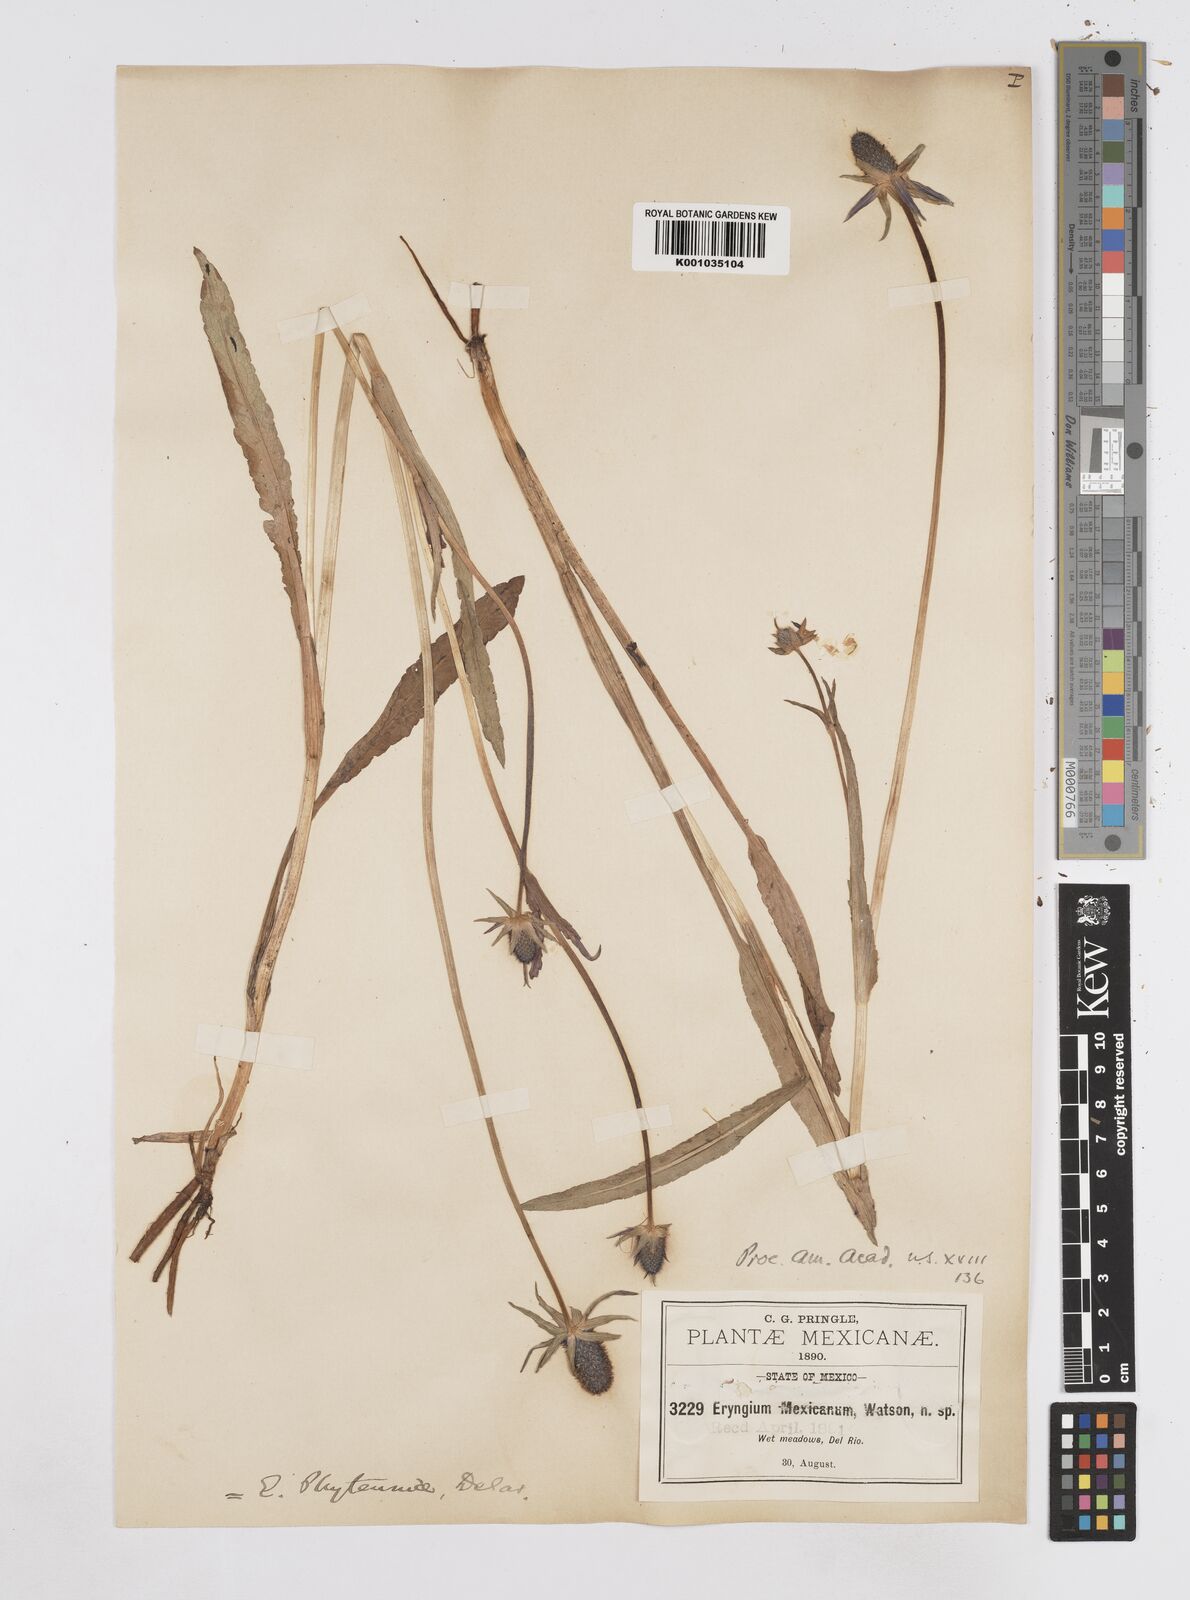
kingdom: Plantae
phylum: Tracheophyta
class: Magnoliopsida
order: Apiales
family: Apiaceae
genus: Eryngium
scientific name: Eryngium phyteumae
